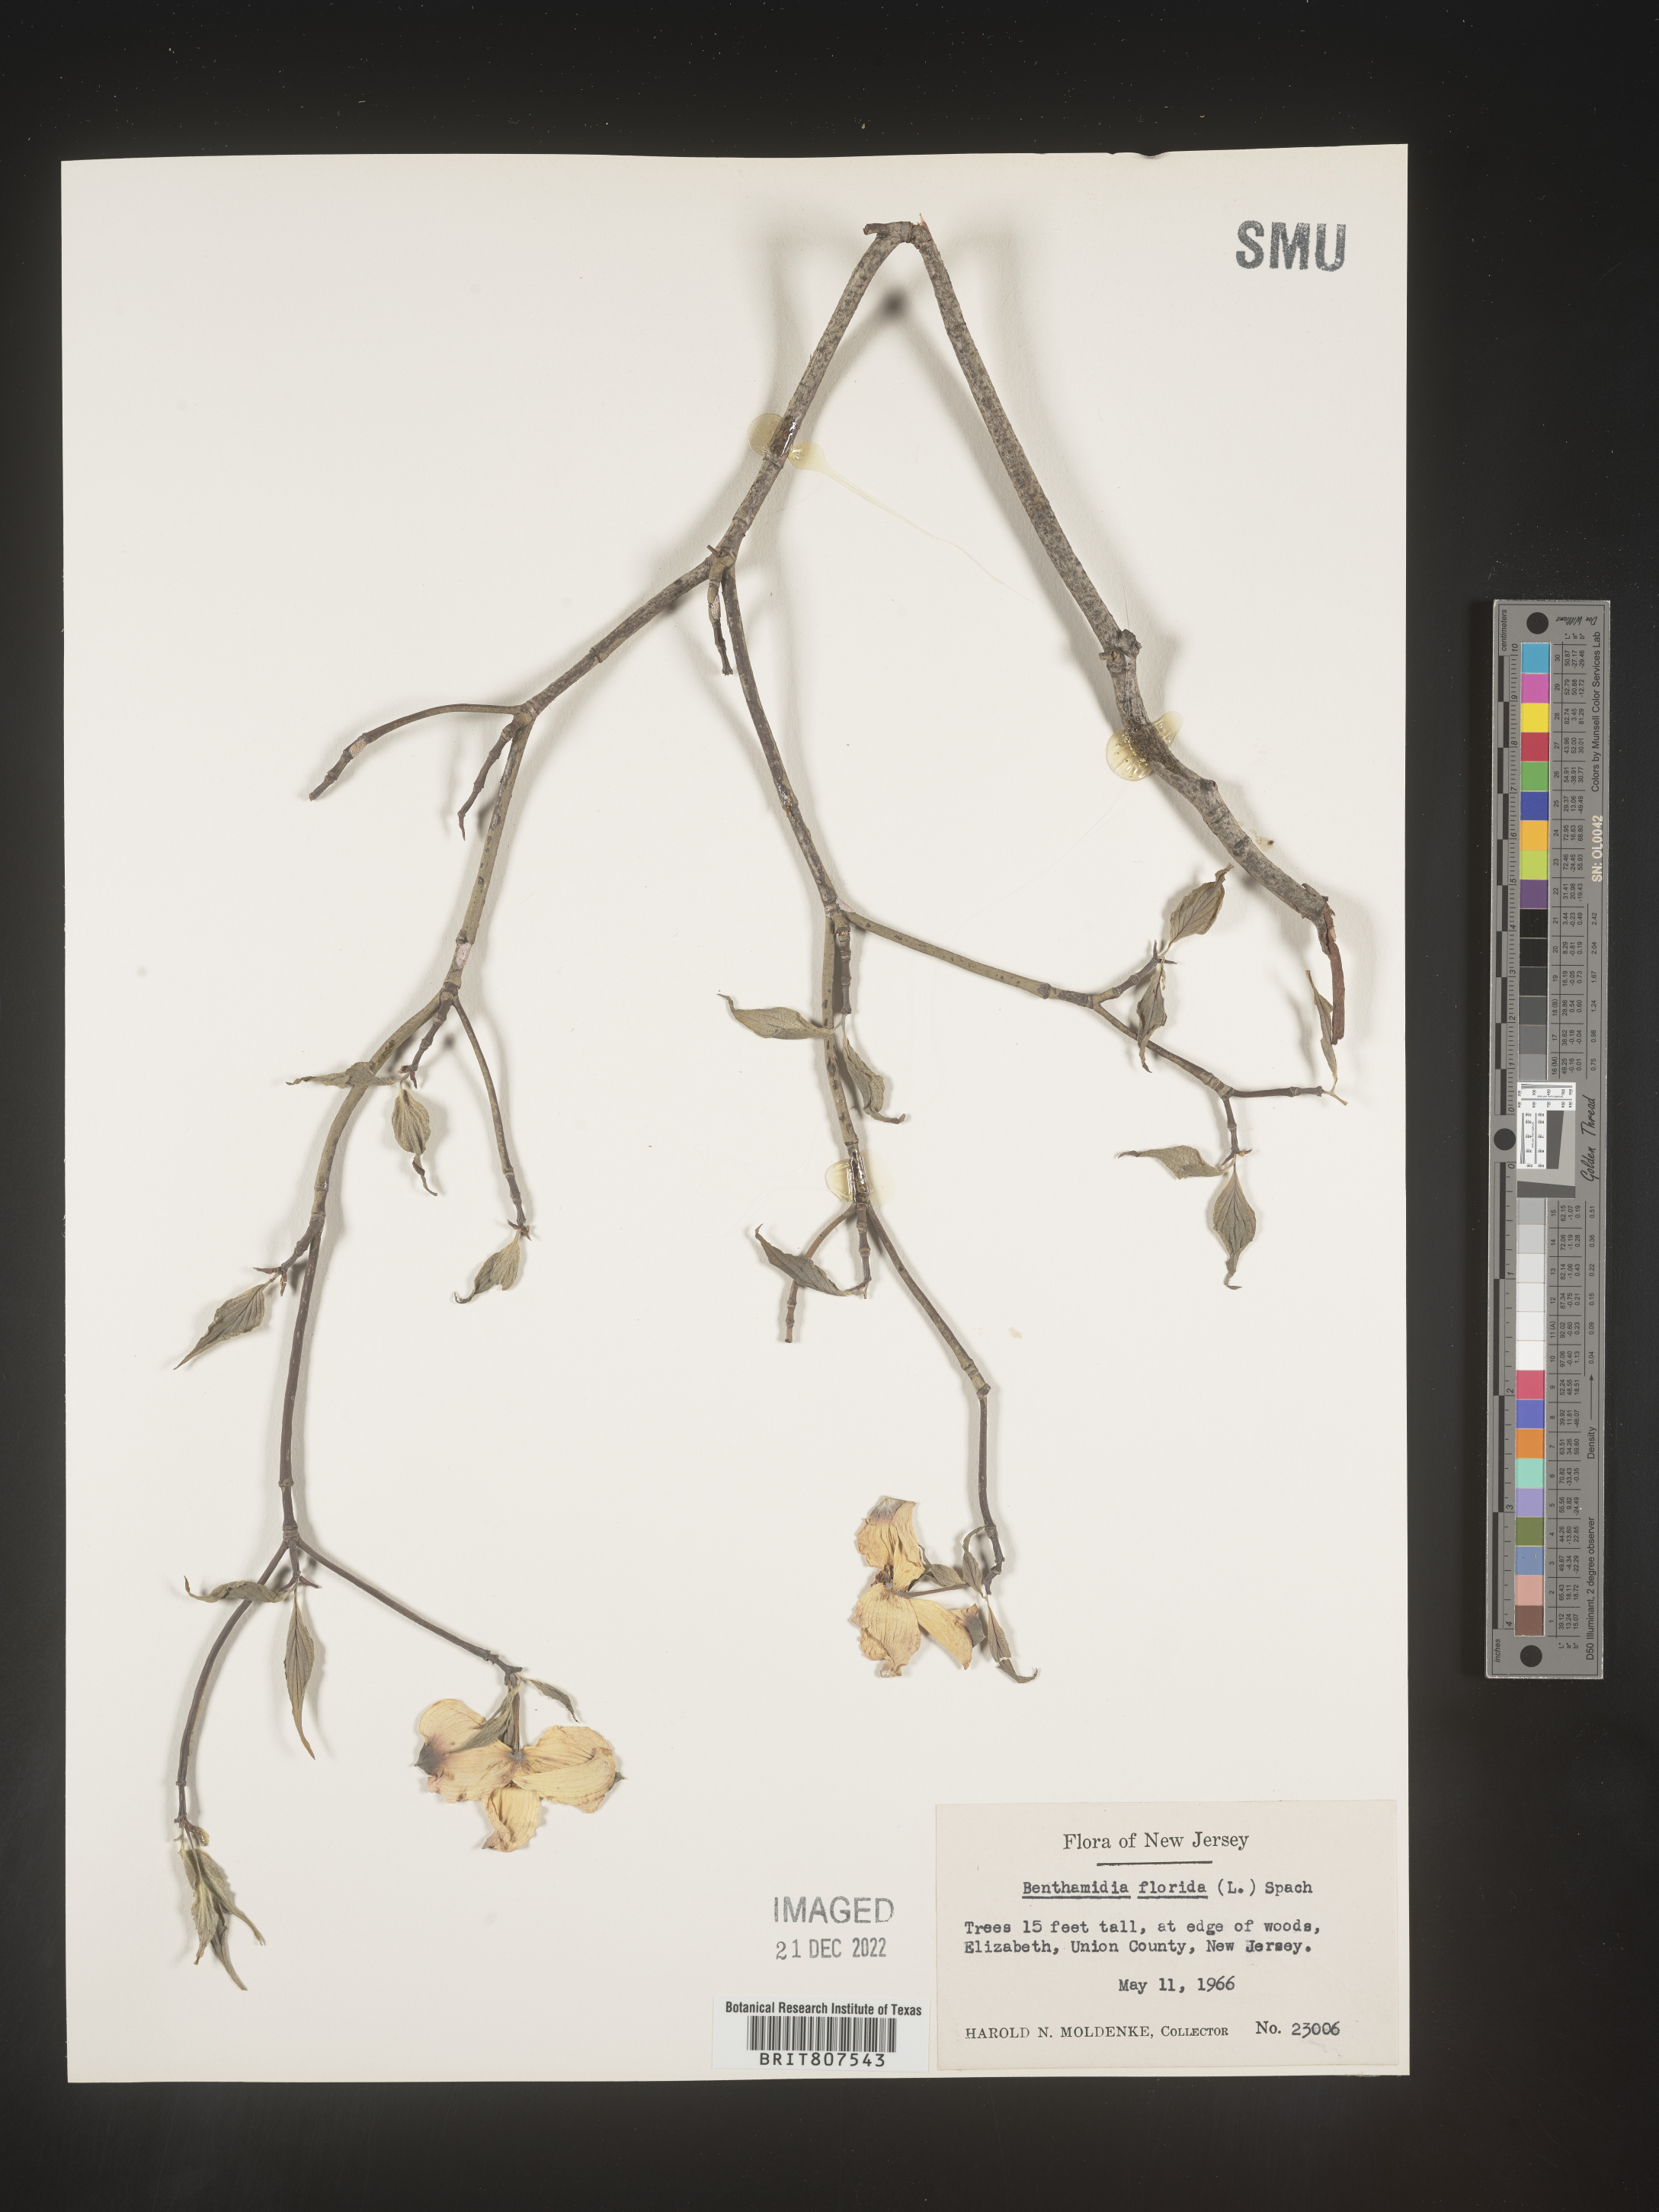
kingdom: Plantae
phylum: Tracheophyta
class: Magnoliopsida
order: Cornales
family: Cornaceae
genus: Cornus
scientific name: Cornus florida
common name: Flowering dogwood
